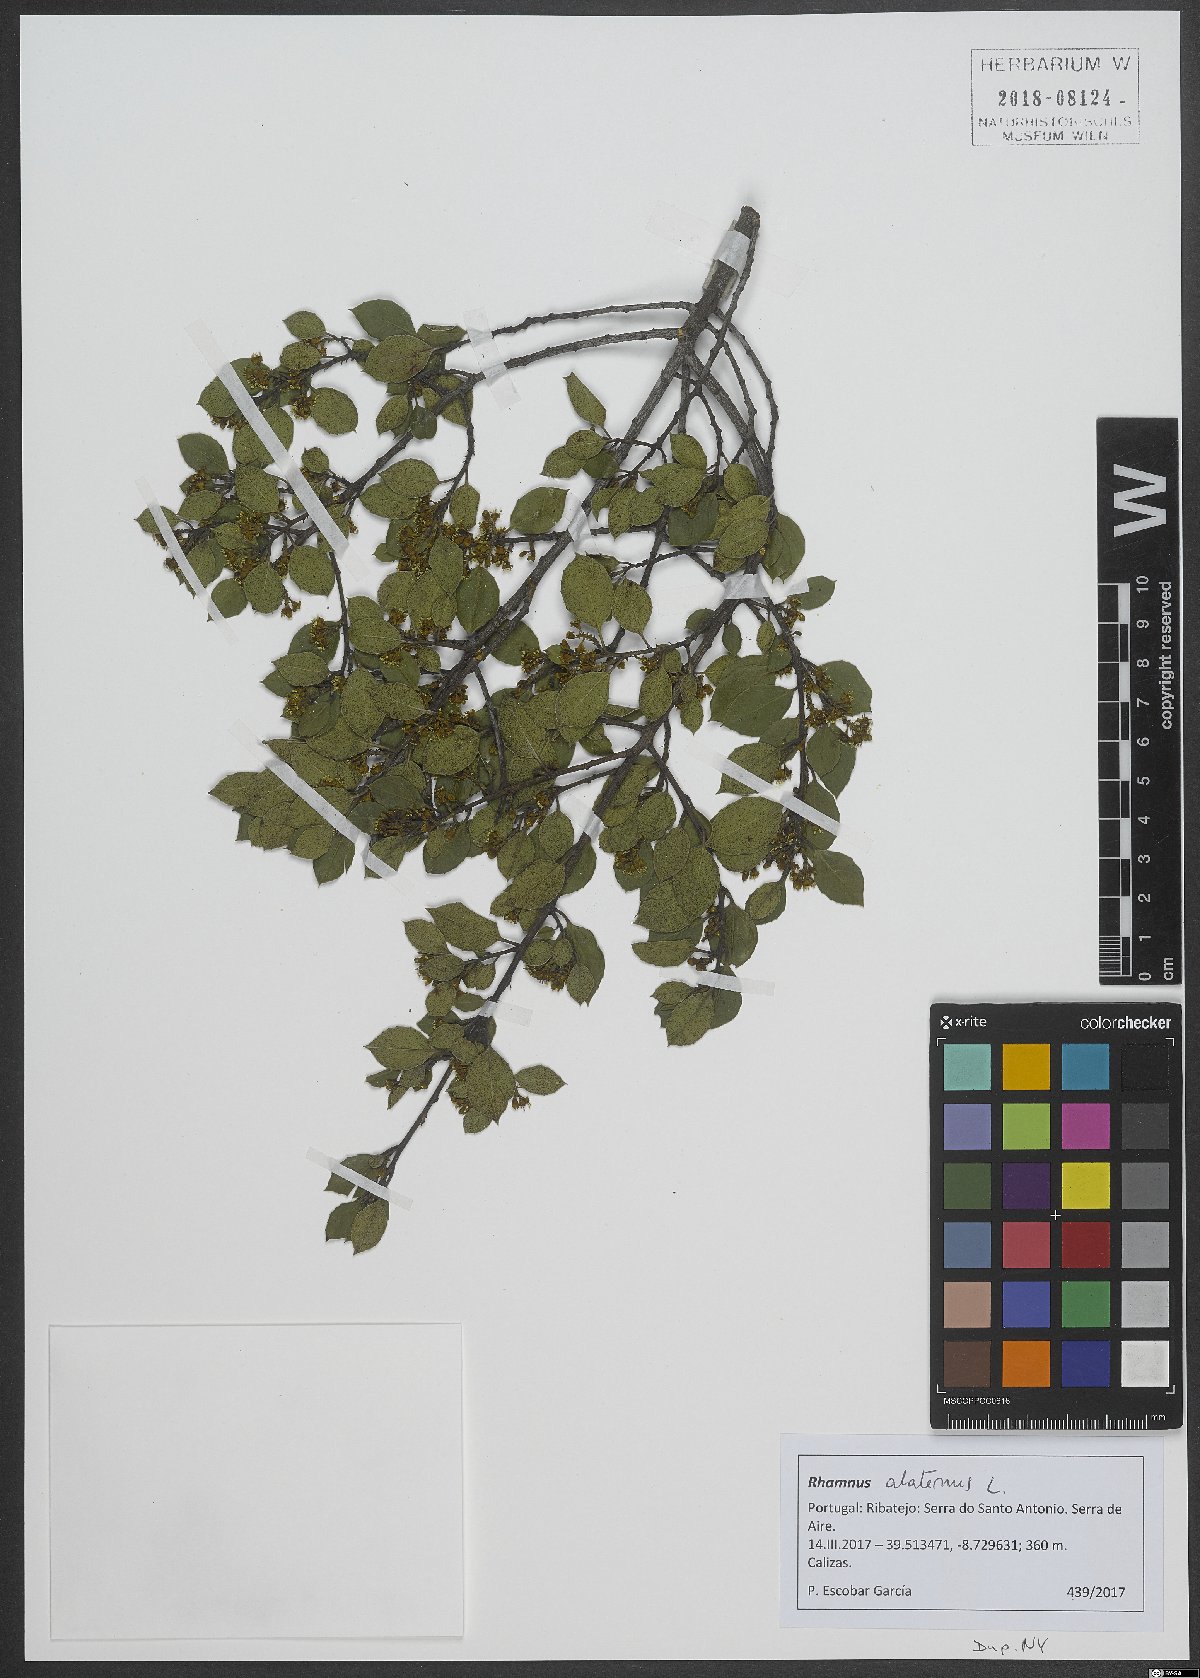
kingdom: Plantae
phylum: Tracheophyta
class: Magnoliopsida
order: Rosales
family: Rhamnaceae
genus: Rhamnus
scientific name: Rhamnus alaternus
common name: Mediterranean buckthorn
